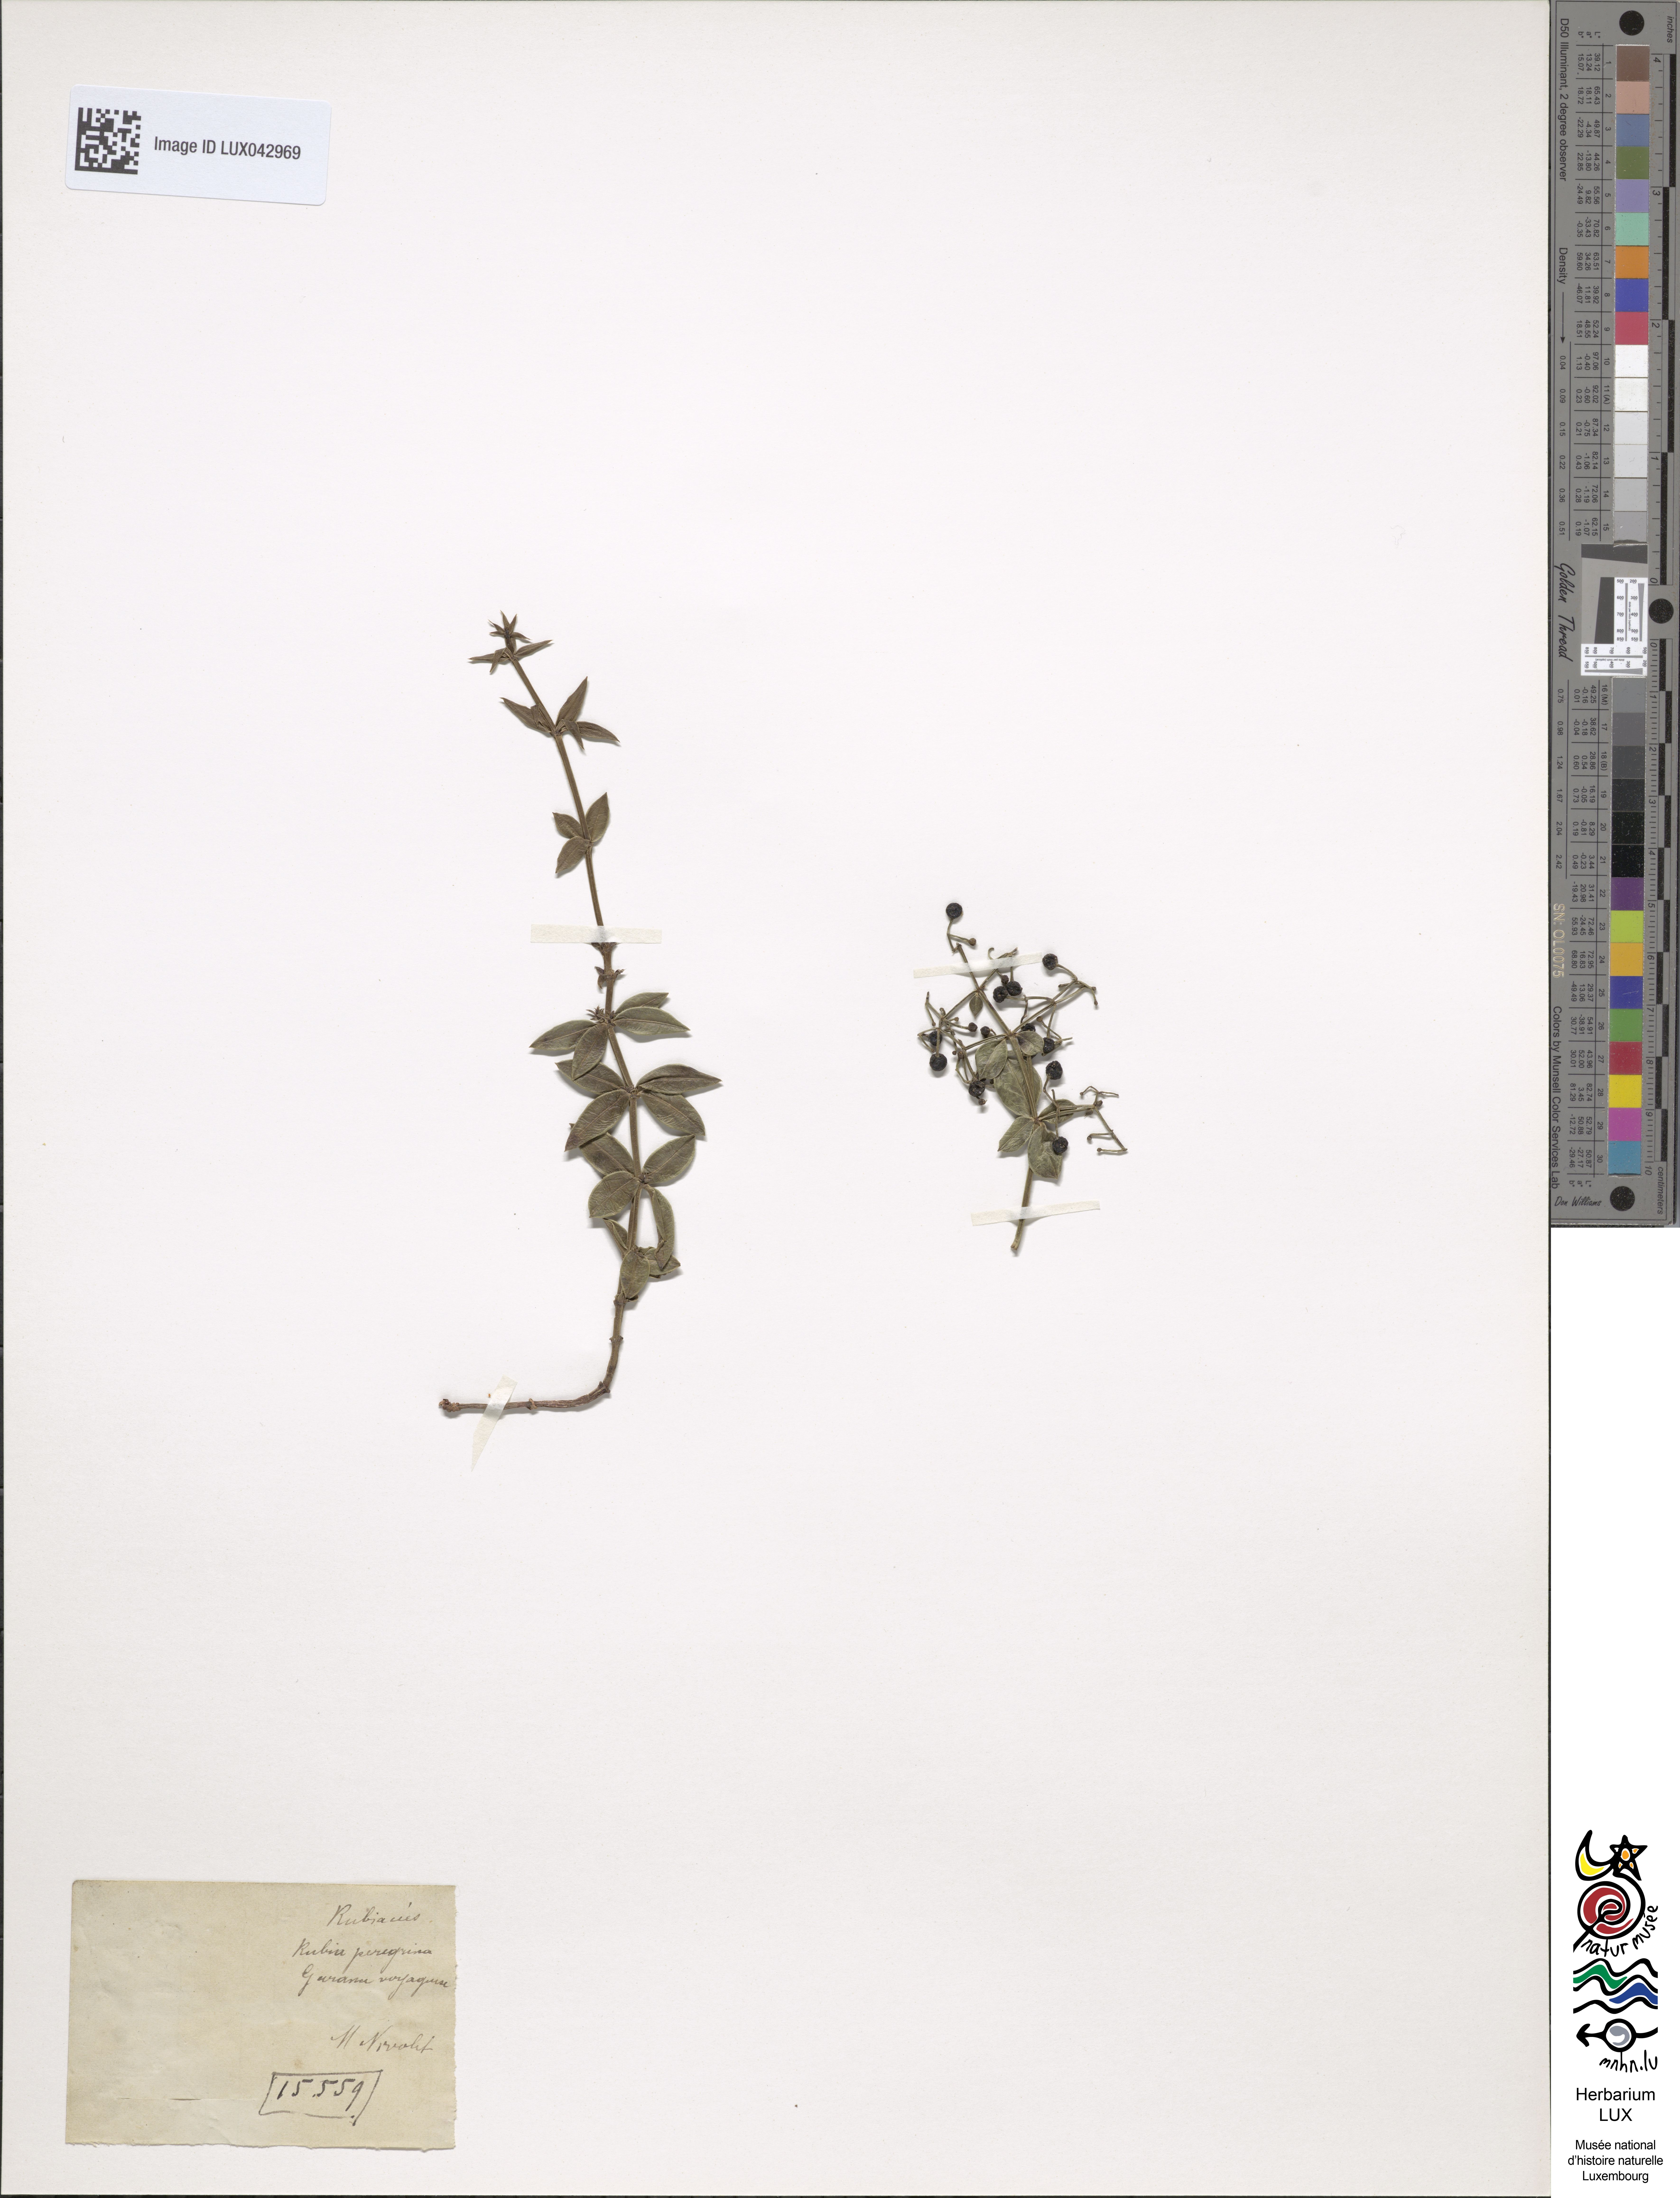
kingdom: Plantae
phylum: Tracheophyta
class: Magnoliopsida
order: Gentianales
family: Rubiaceae
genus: Rubia
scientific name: Rubia peregrina
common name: Wild madder
